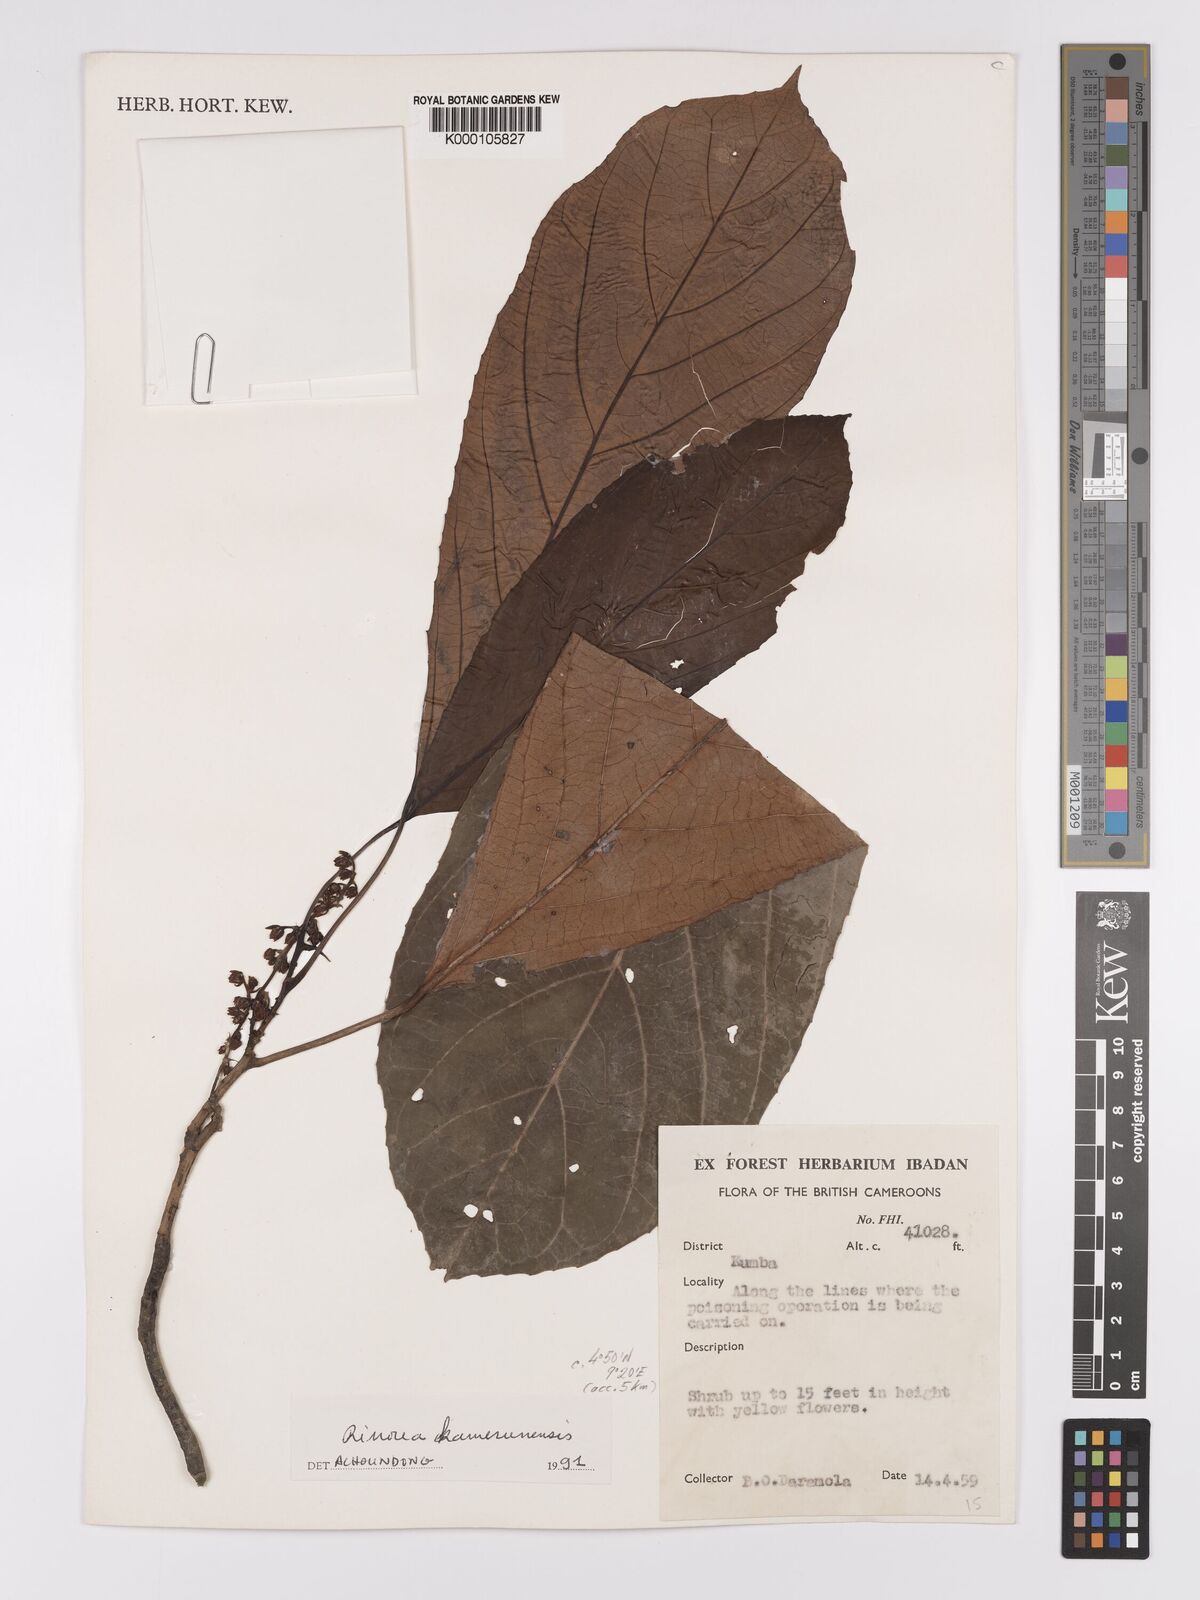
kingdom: Plantae
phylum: Tracheophyta
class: Magnoliopsida
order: Malpighiales
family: Violaceae
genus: Rinorea
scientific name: Rinorea kamerunensis
